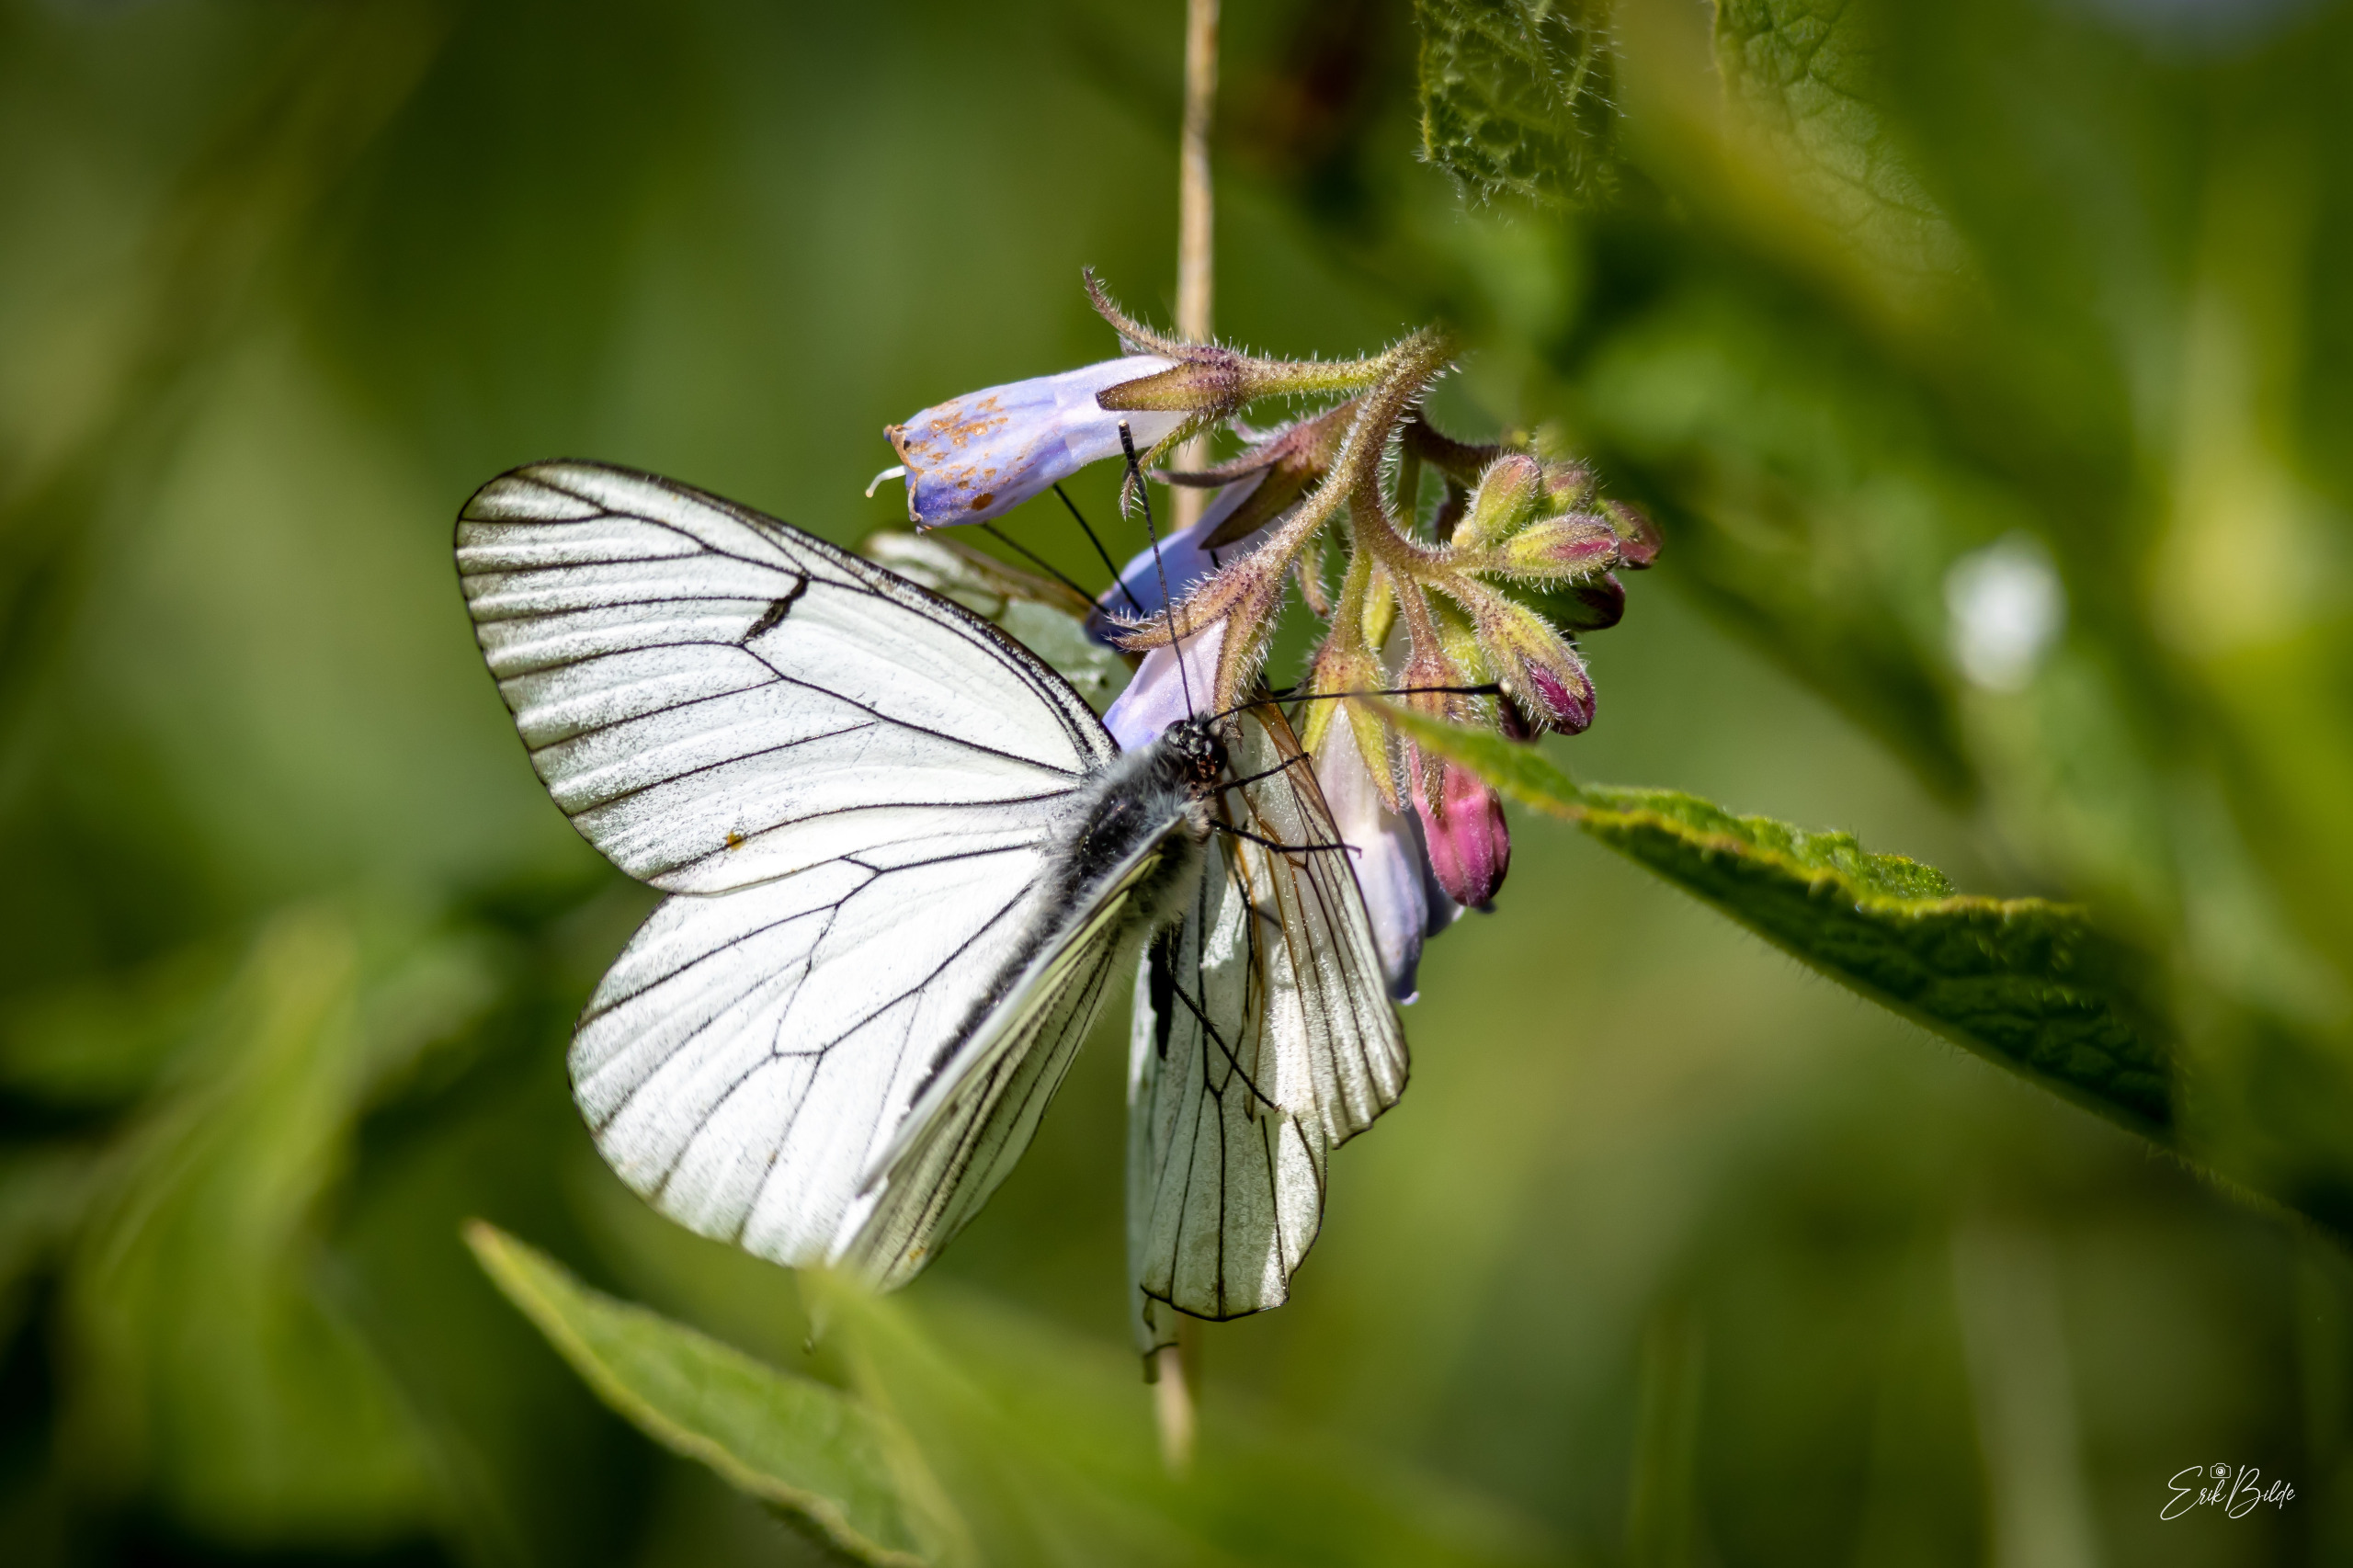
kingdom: Animalia
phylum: Arthropoda
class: Insecta
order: Lepidoptera
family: Pieridae
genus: Aporia
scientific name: Aporia crataegi
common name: Sortåret hvidvinge
